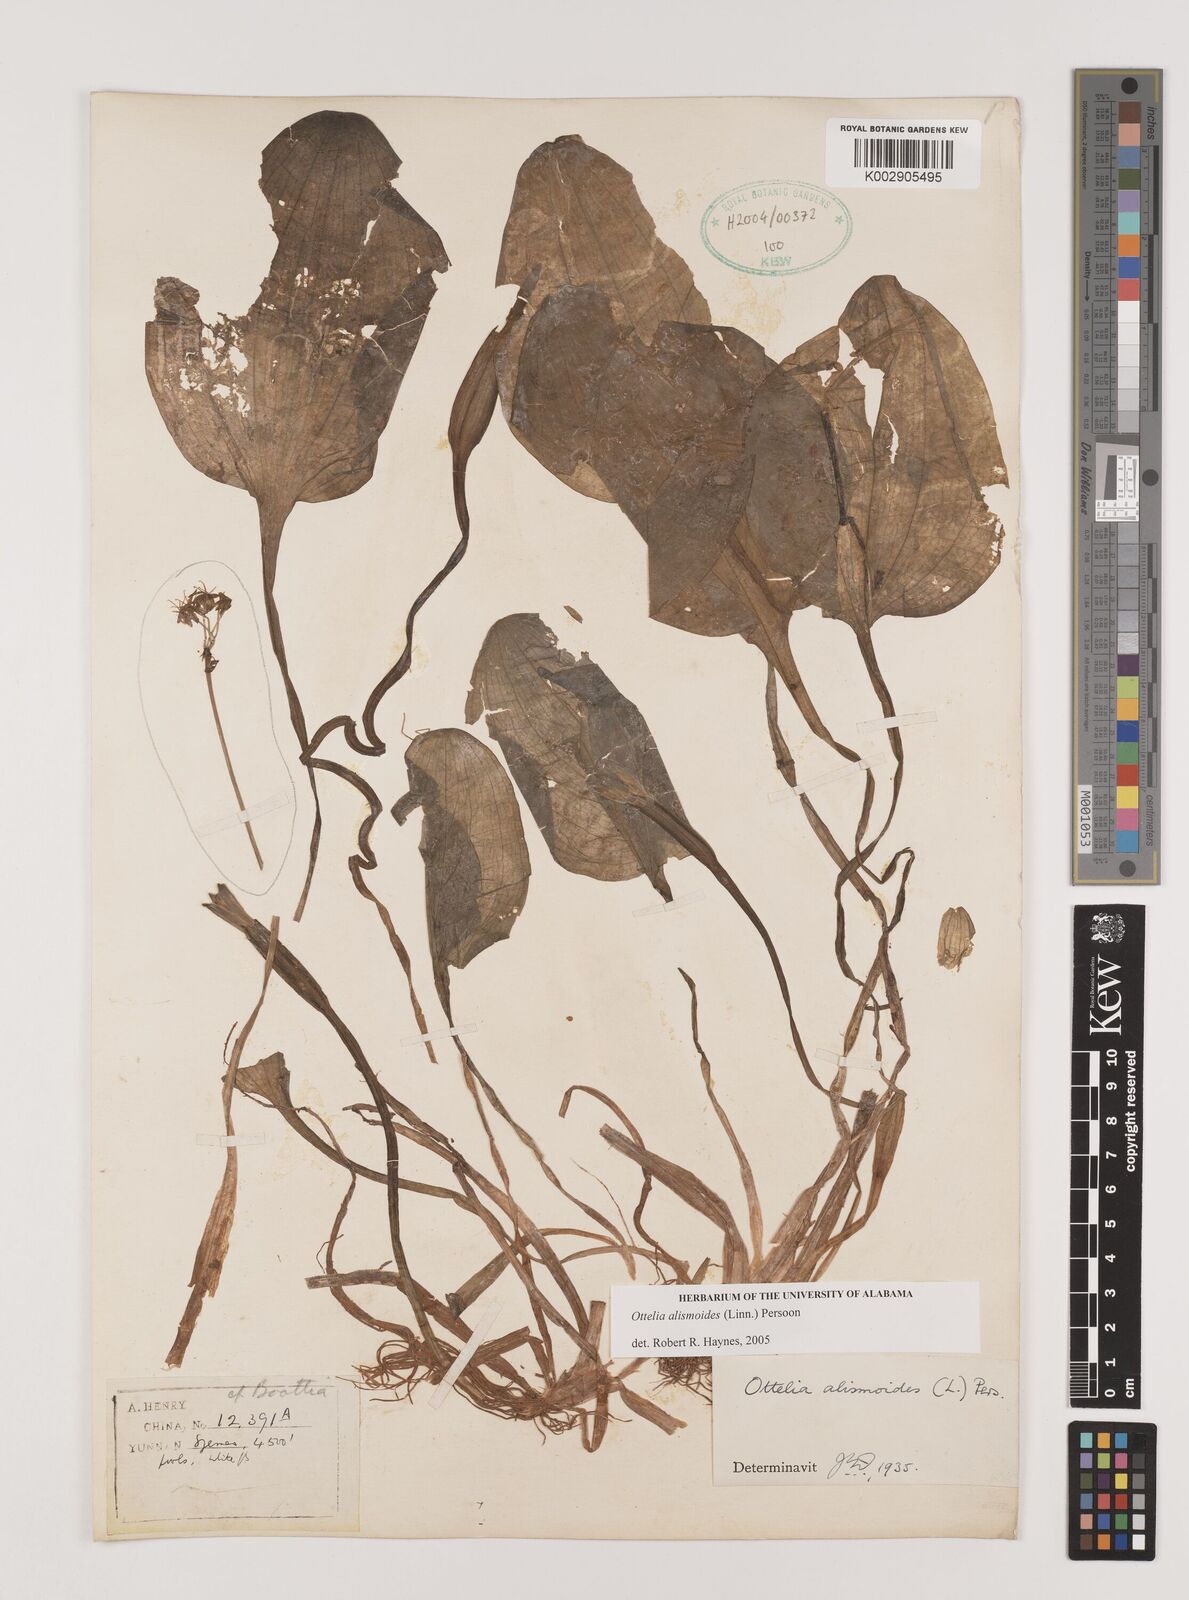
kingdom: Plantae
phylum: Tracheophyta
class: Liliopsida
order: Alismatales
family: Hydrocharitaceae
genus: Ottelia
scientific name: Ottelia alismoides
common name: Duck-lettuce
